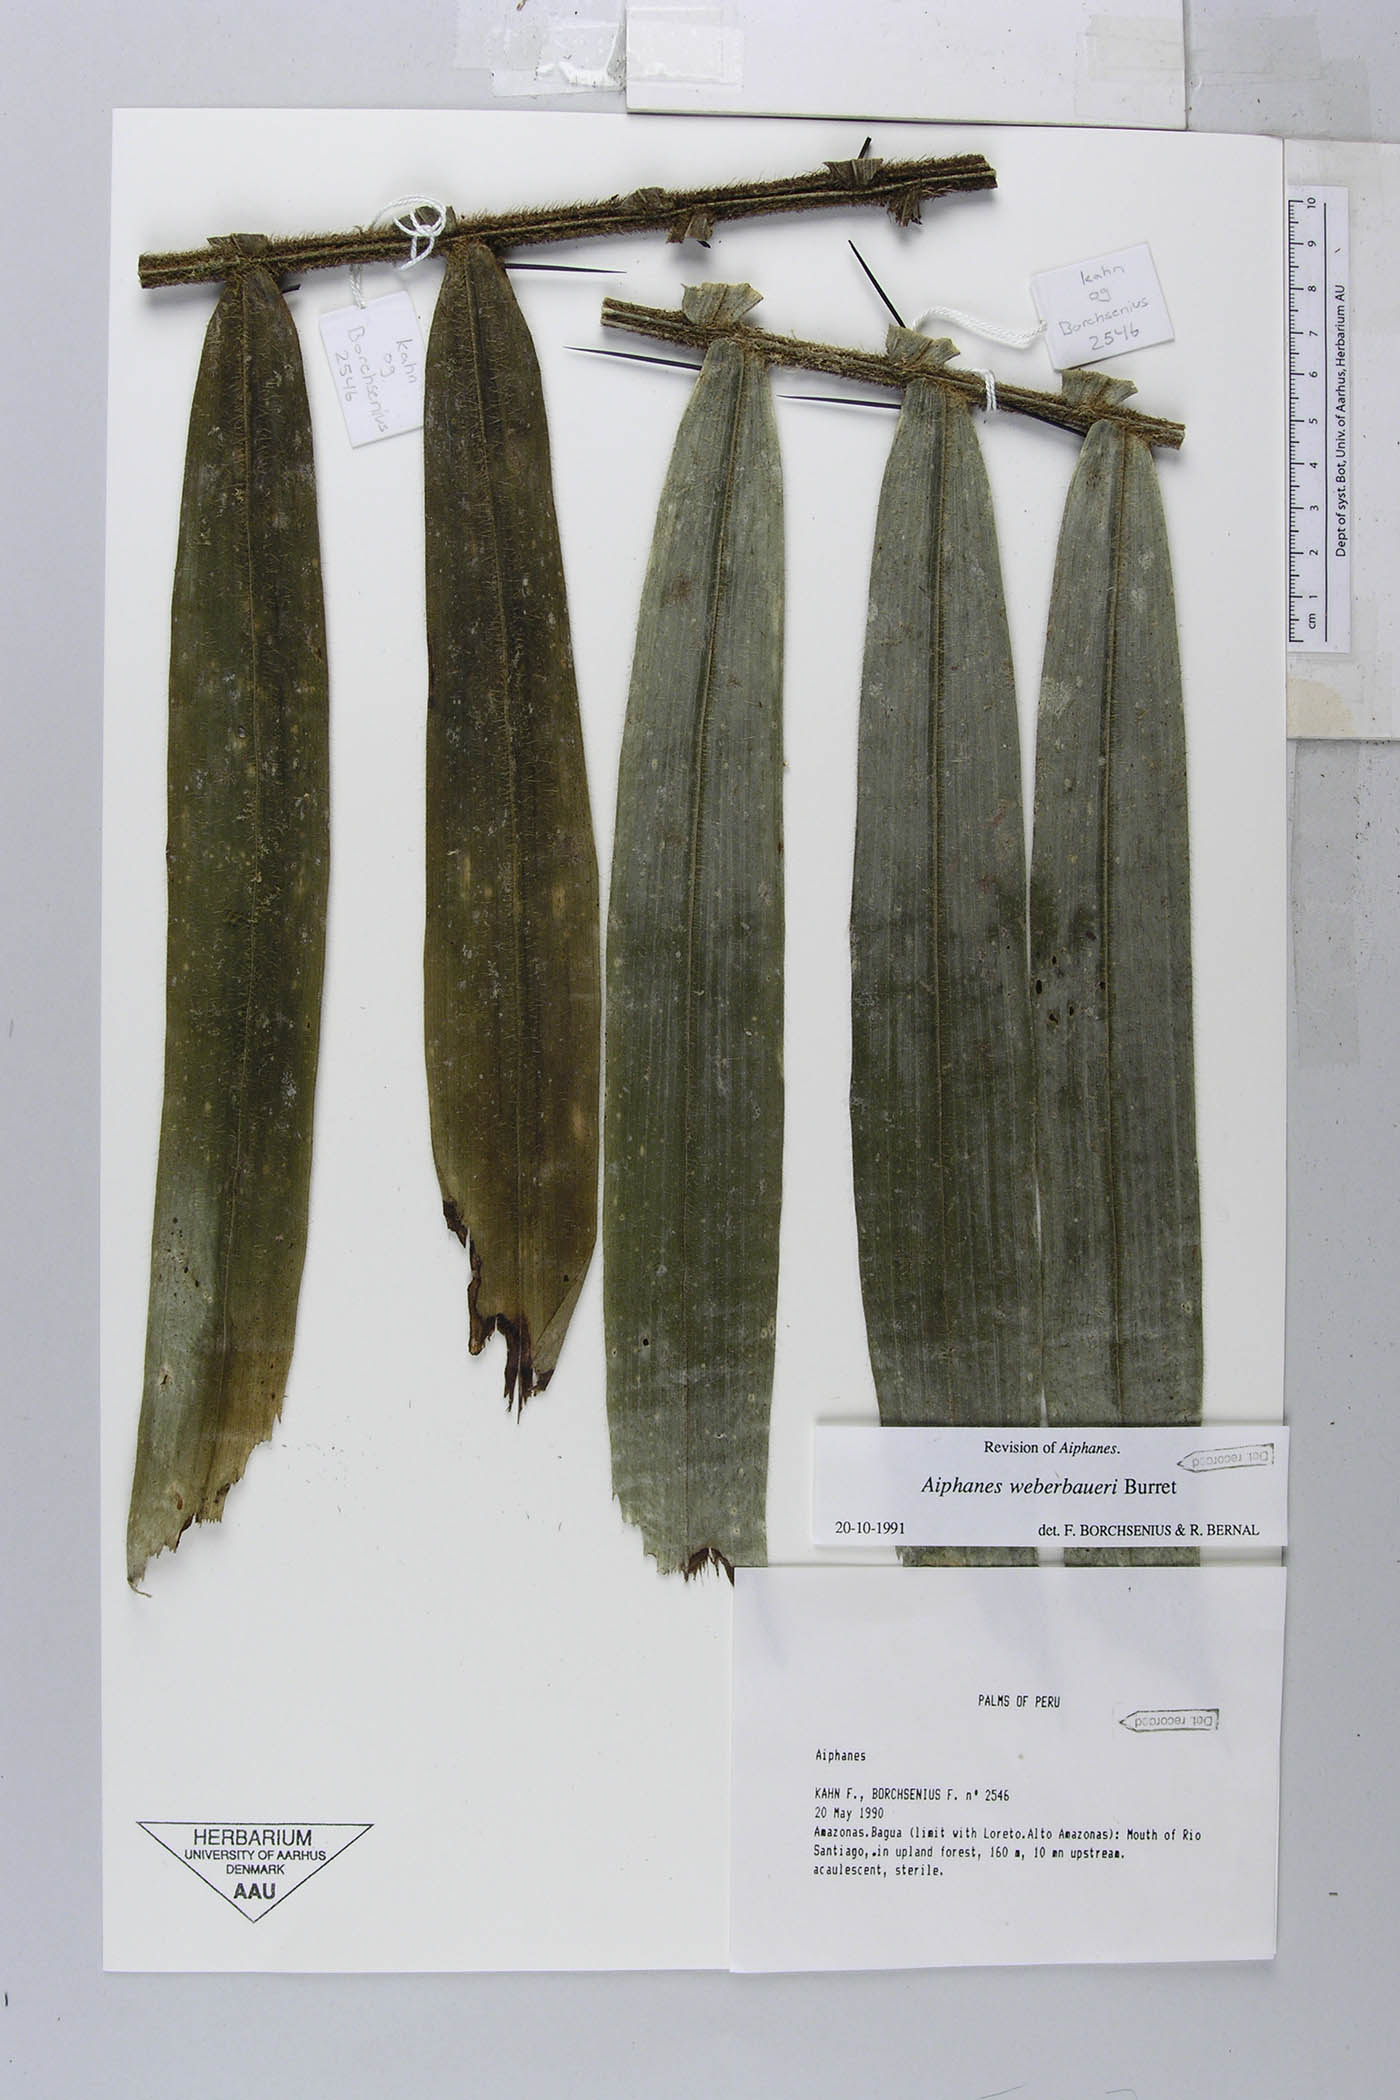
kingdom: Plantae
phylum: Tracheophyta
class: Liliopsida
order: Arecales
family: Arecaceae
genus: Aiphanes
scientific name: Aiphanes weberbaueri
